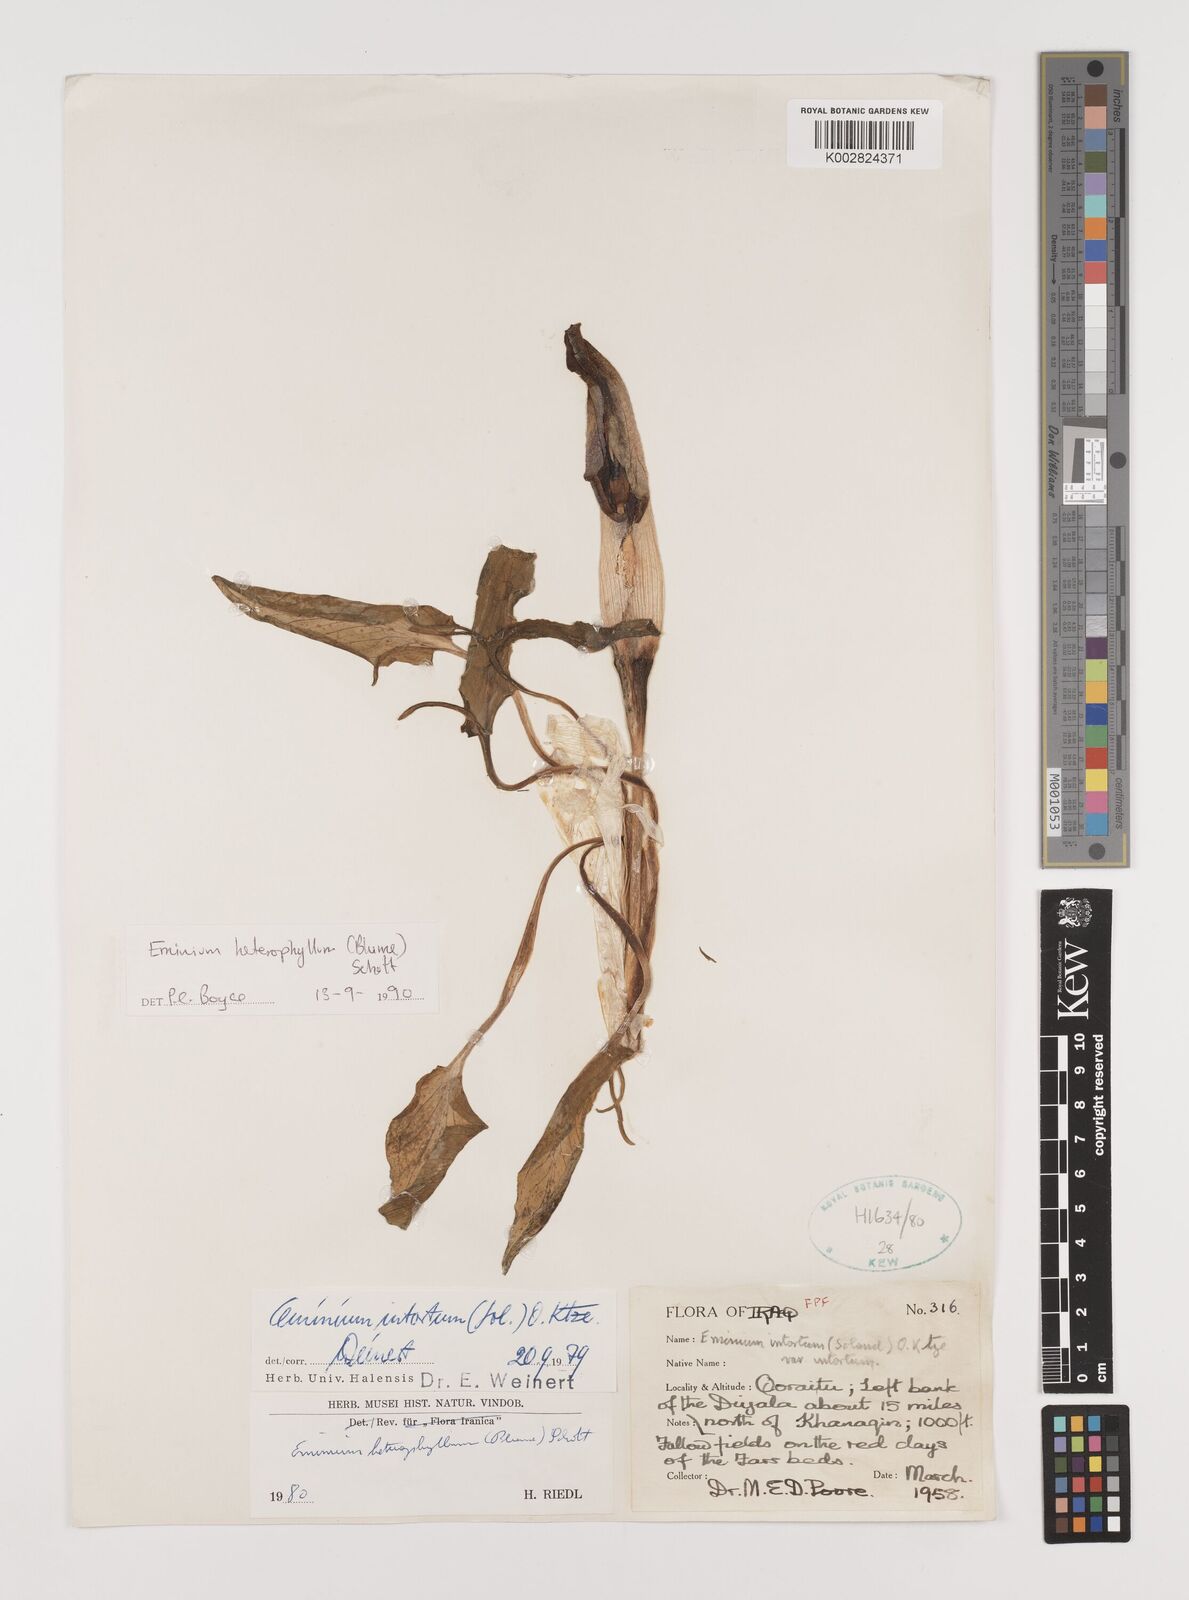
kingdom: Plantae
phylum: Tracheophyta
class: Liliopsida
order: Alismatales
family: Araceae
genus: Eminium
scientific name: Eminium rauwolffii
